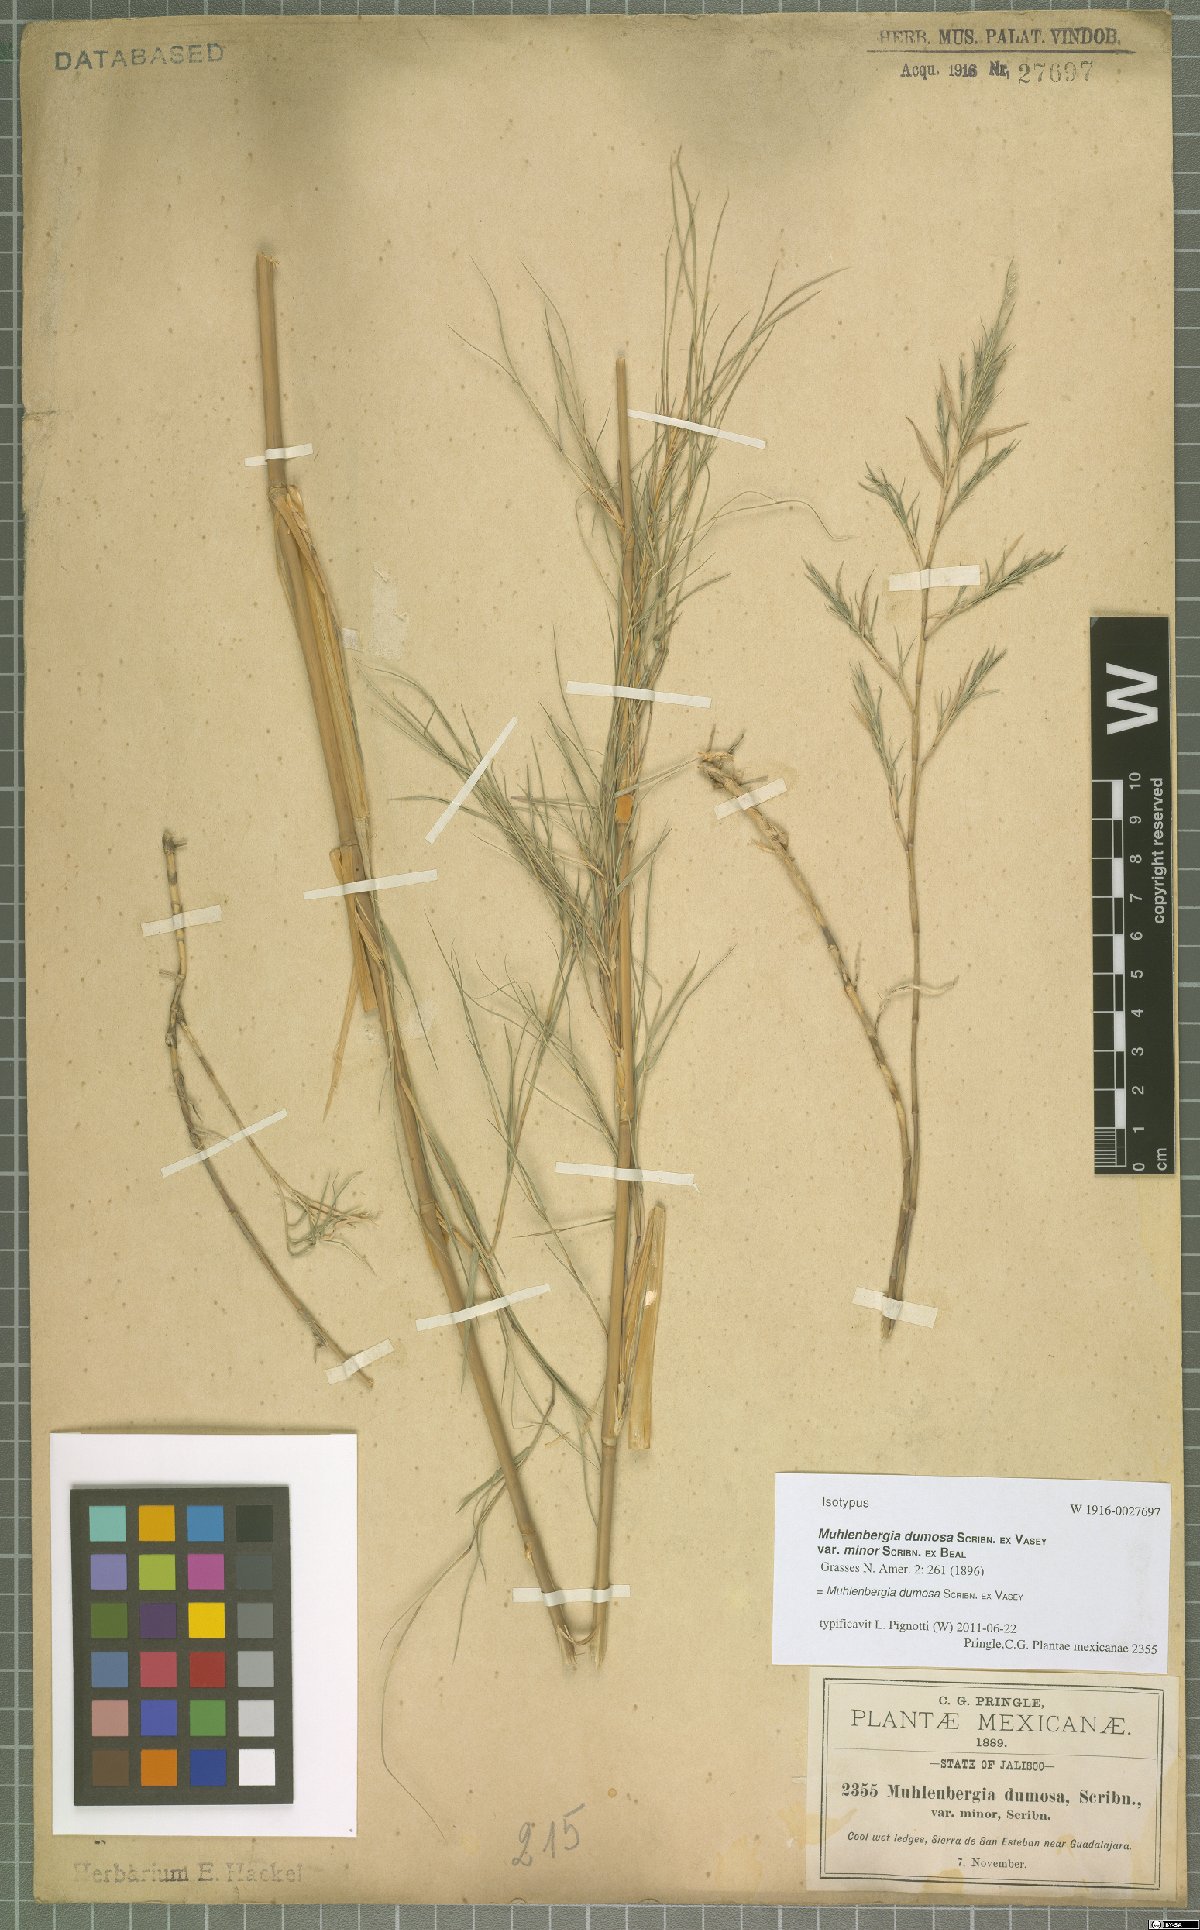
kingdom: Plantae
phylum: Tracheophyta
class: Liliopsida
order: Poales
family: Poaceae
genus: Muhlenbergia
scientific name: Muhlenbergia dumosa
